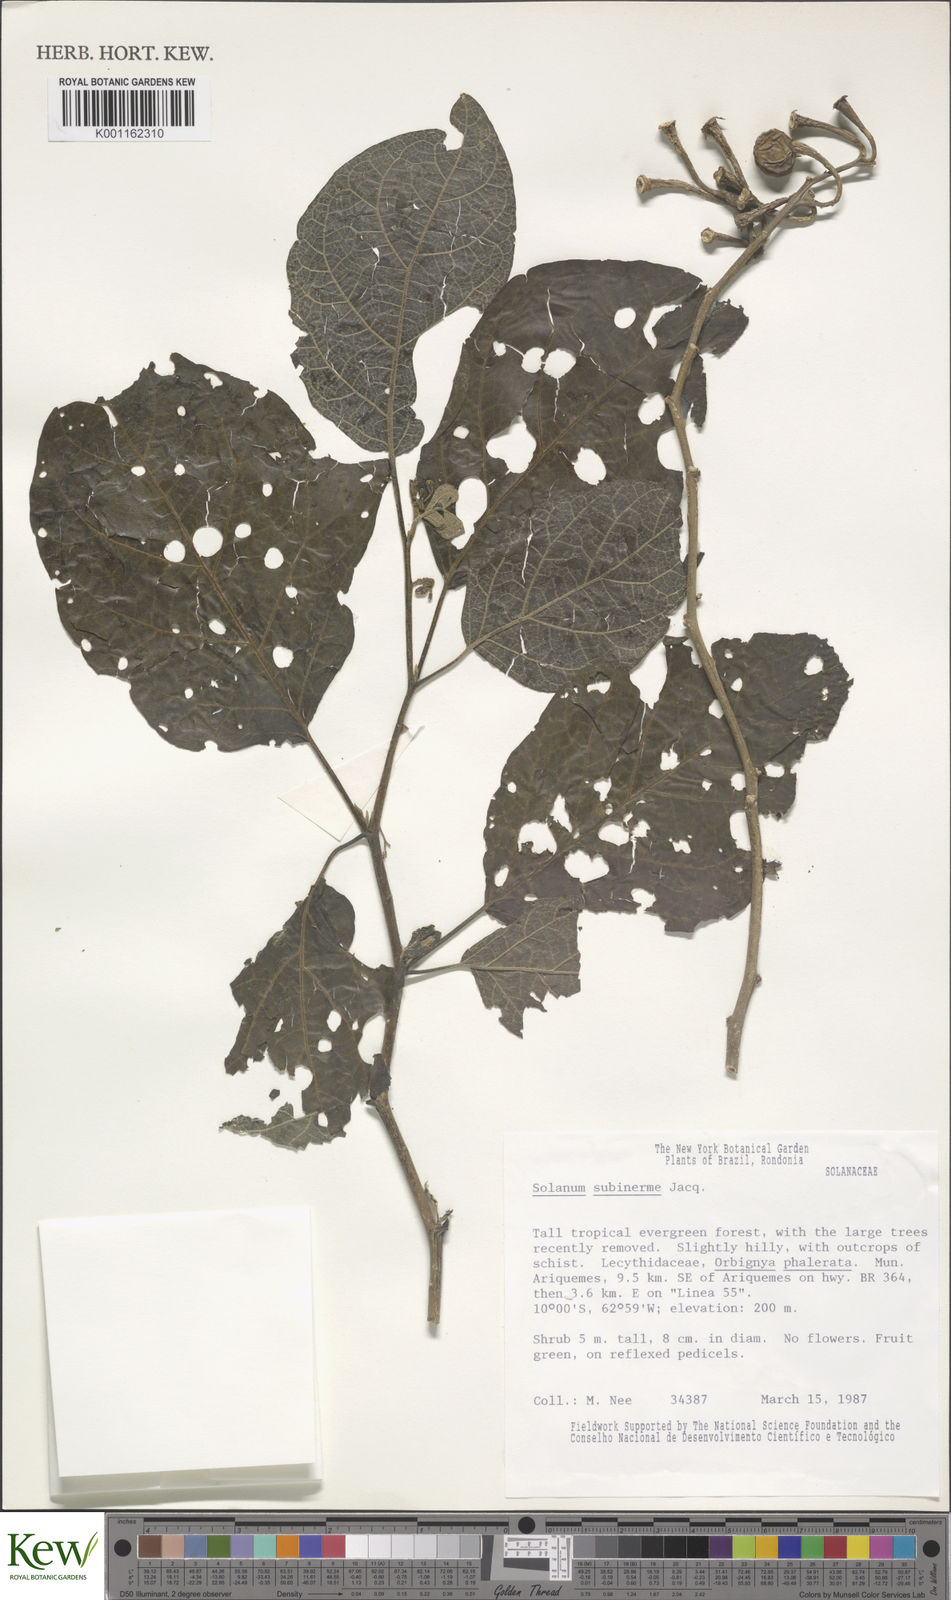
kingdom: Plantae
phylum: Tracheophyta
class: Magnoliopsida
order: Solanales
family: Solanaceae
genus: Solanum
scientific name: Solanum subinerme
